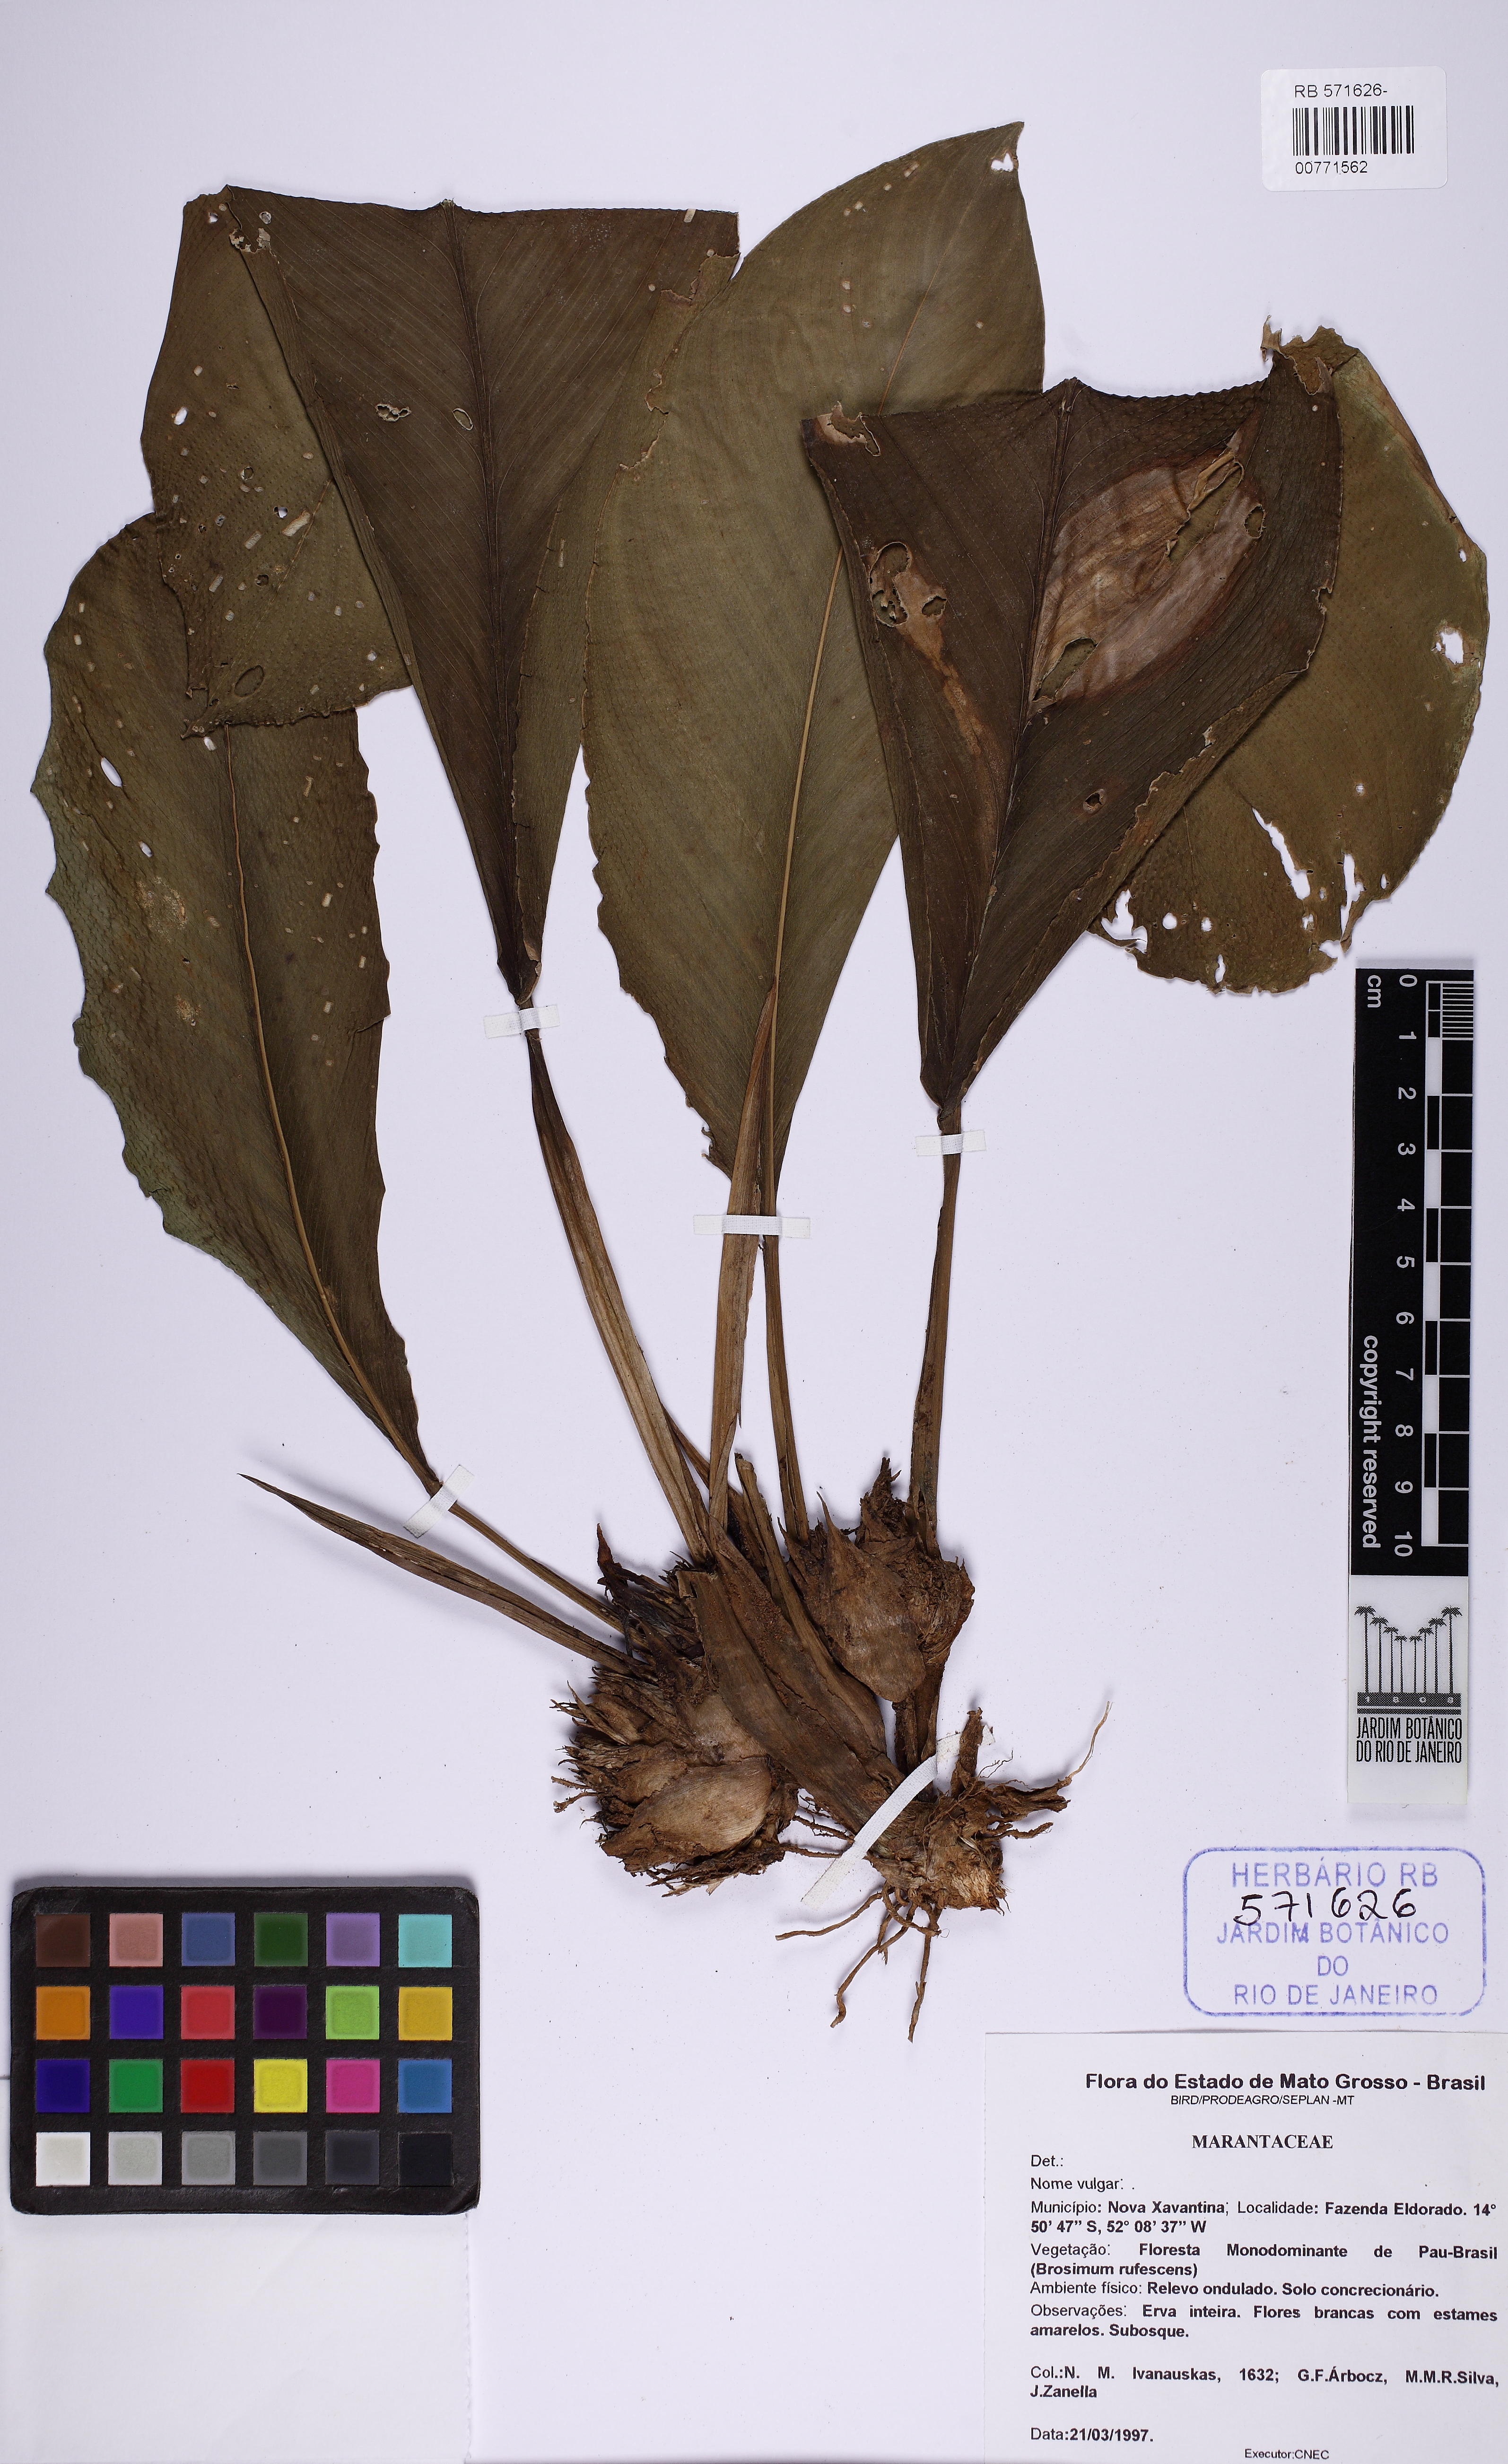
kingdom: Plantae
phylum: Tracheophyta
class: Liliopsida
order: Zingiberales
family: Marantaceae
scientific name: Marantaceae
